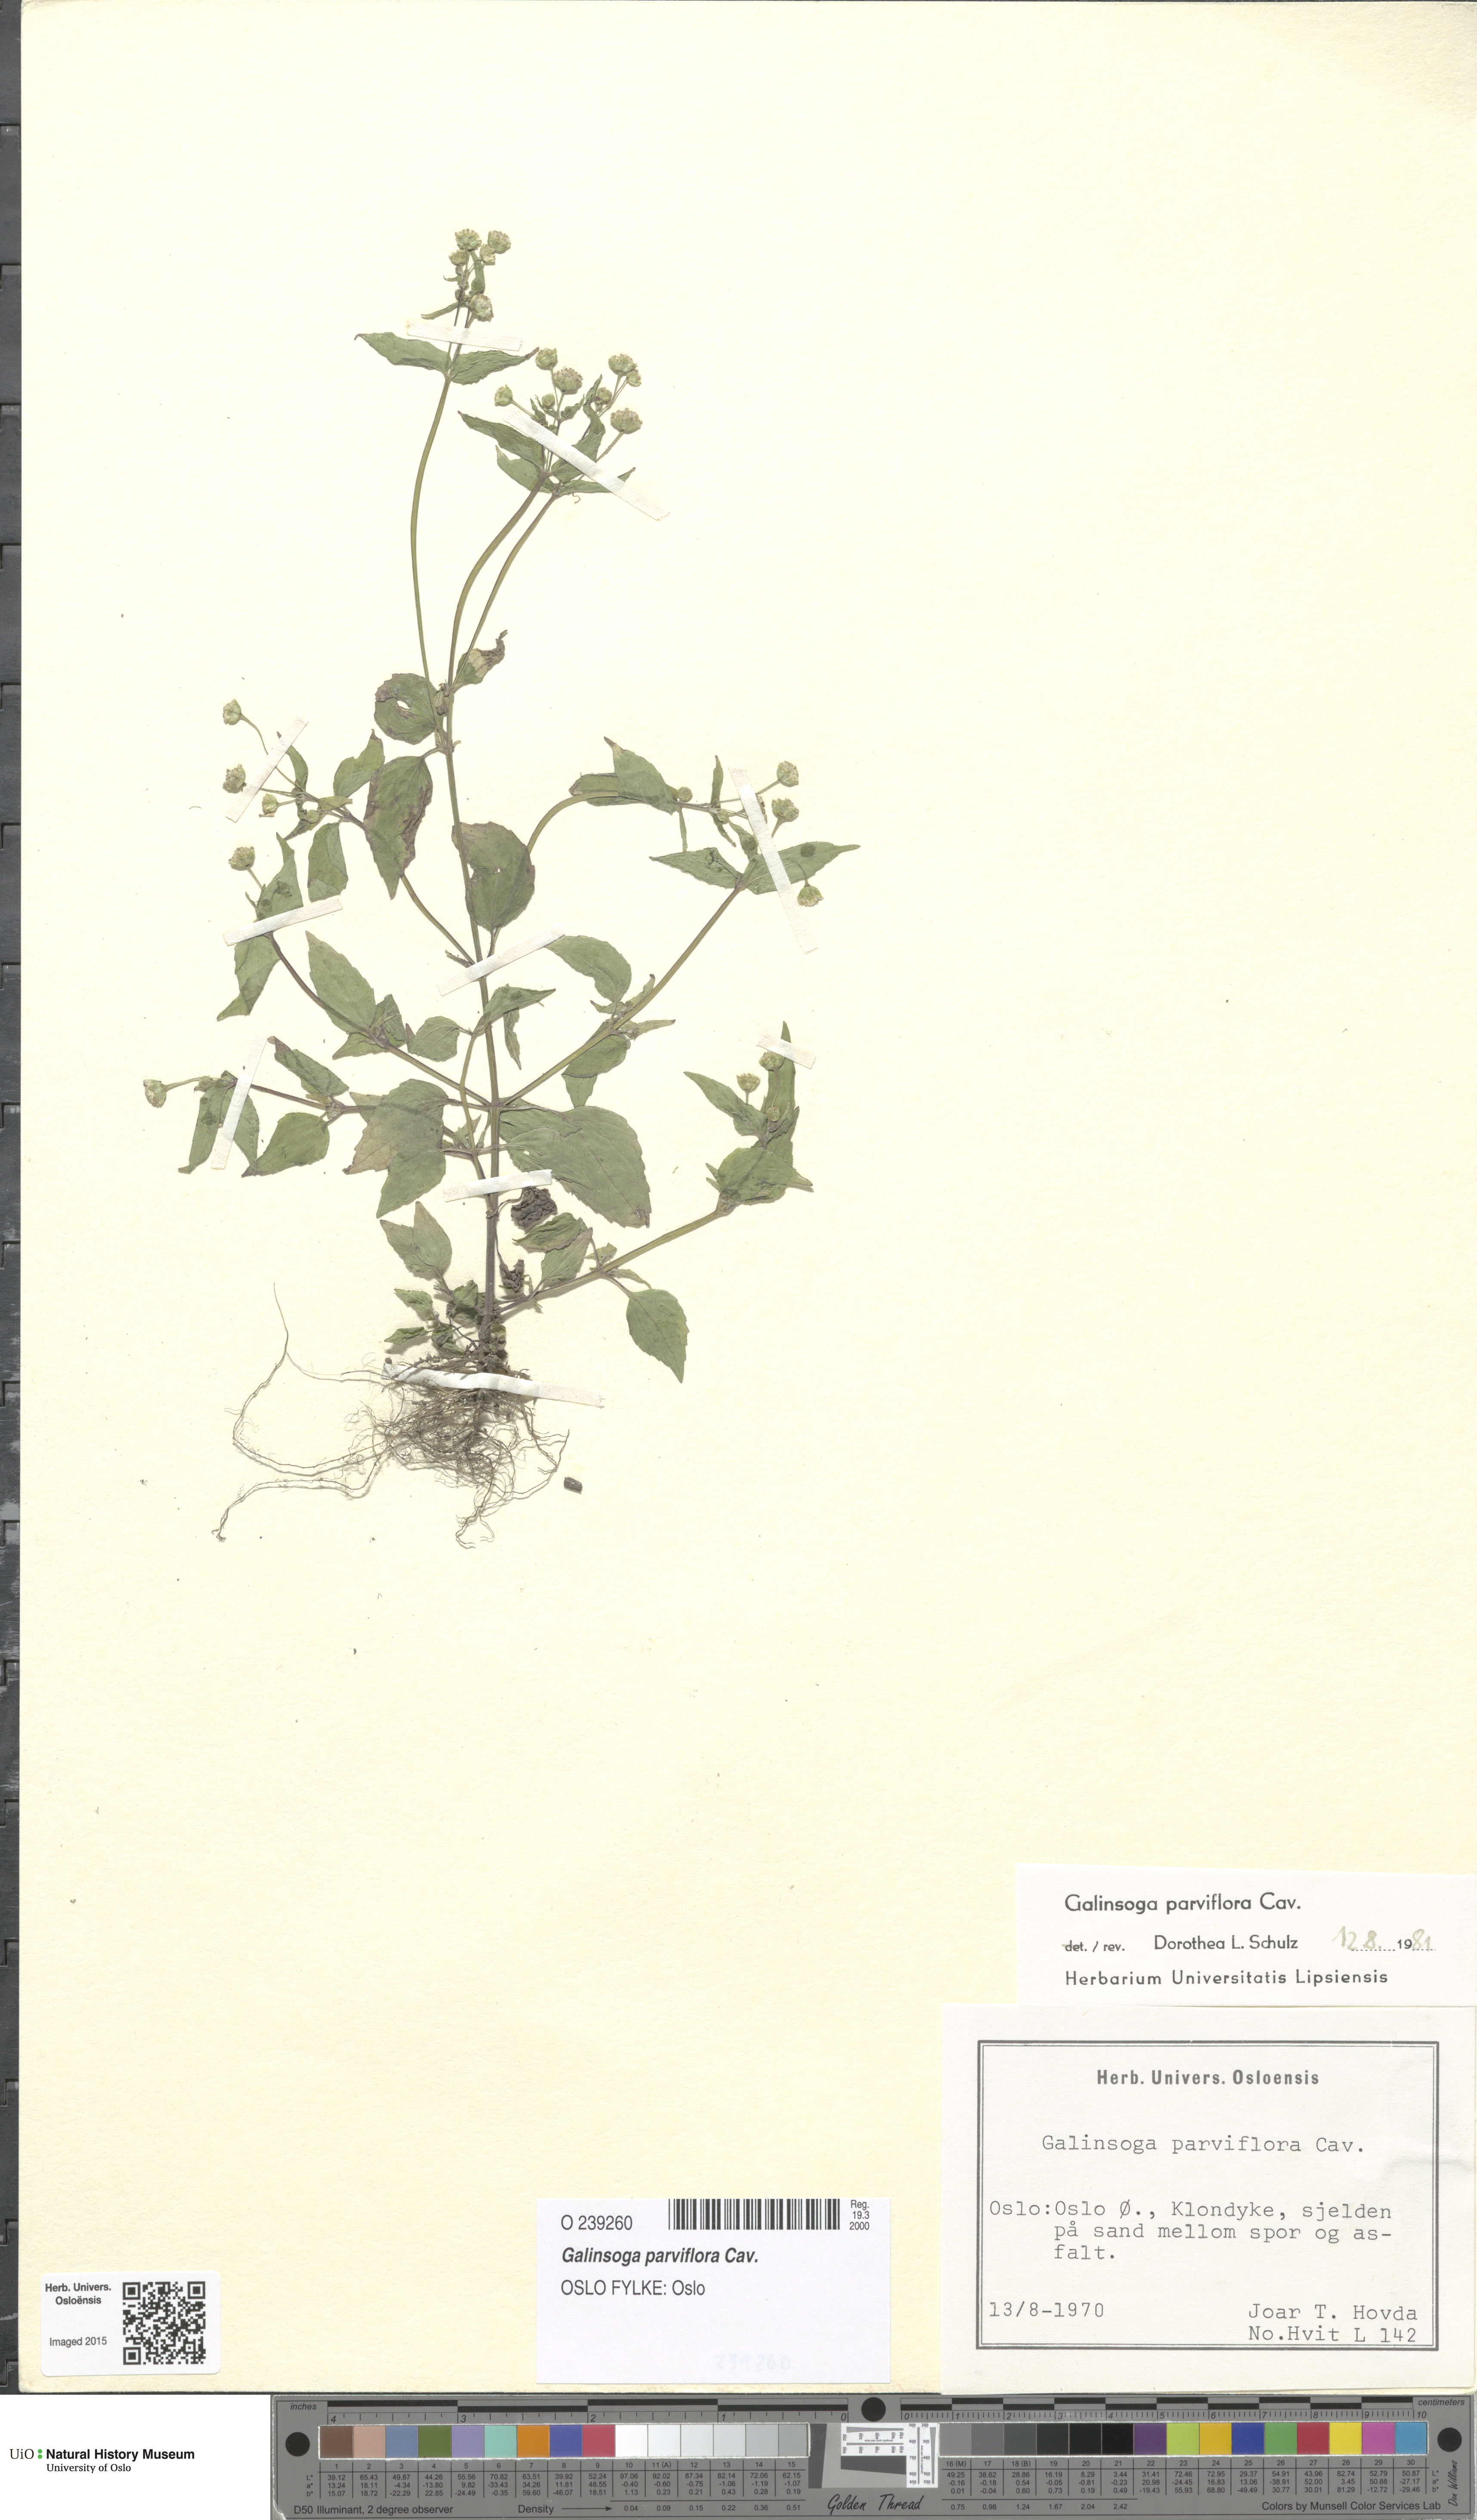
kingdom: Plantae
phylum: Tracheophyta
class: Magnoliopsida
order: Asterales
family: Asteraceae
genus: Galinsoga
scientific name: Galinsoga parviflora
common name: Gallant soldier
